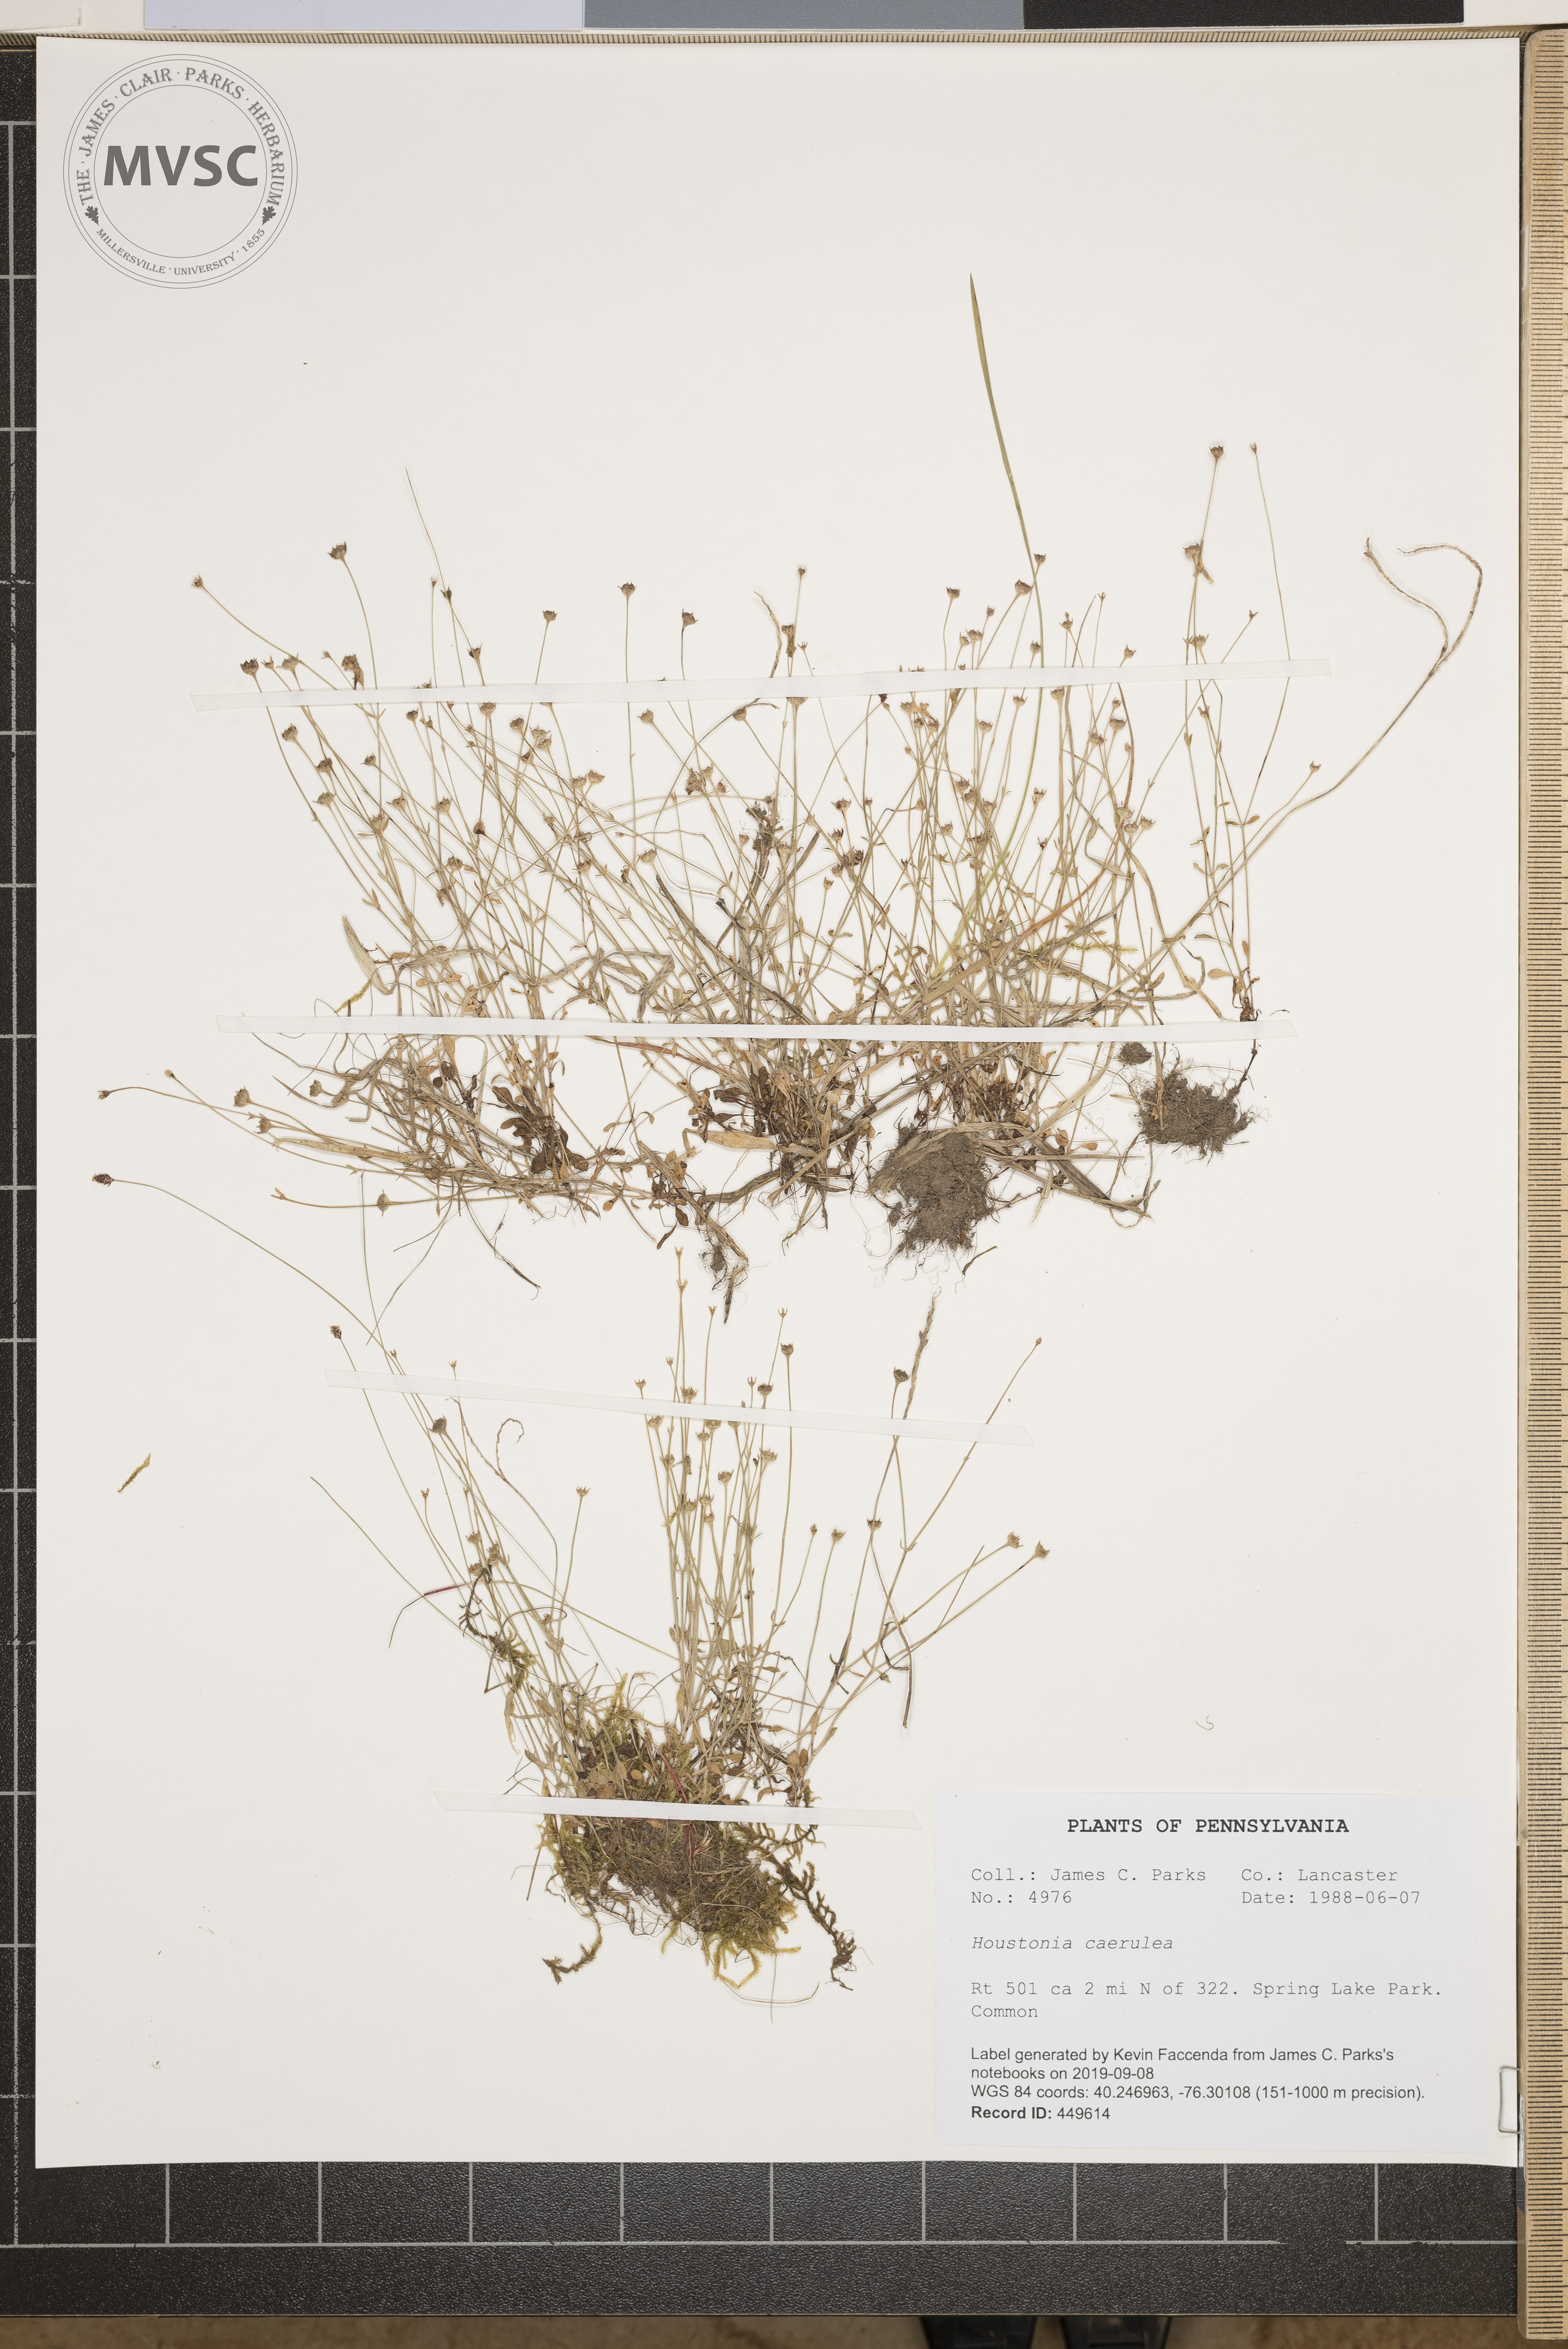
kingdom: Plantae
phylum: Tracheophyta
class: Magnoliopsida
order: Gentianales
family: Rubiaceae
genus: Houstonia
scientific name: Houstonia caerulea
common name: Bluets
